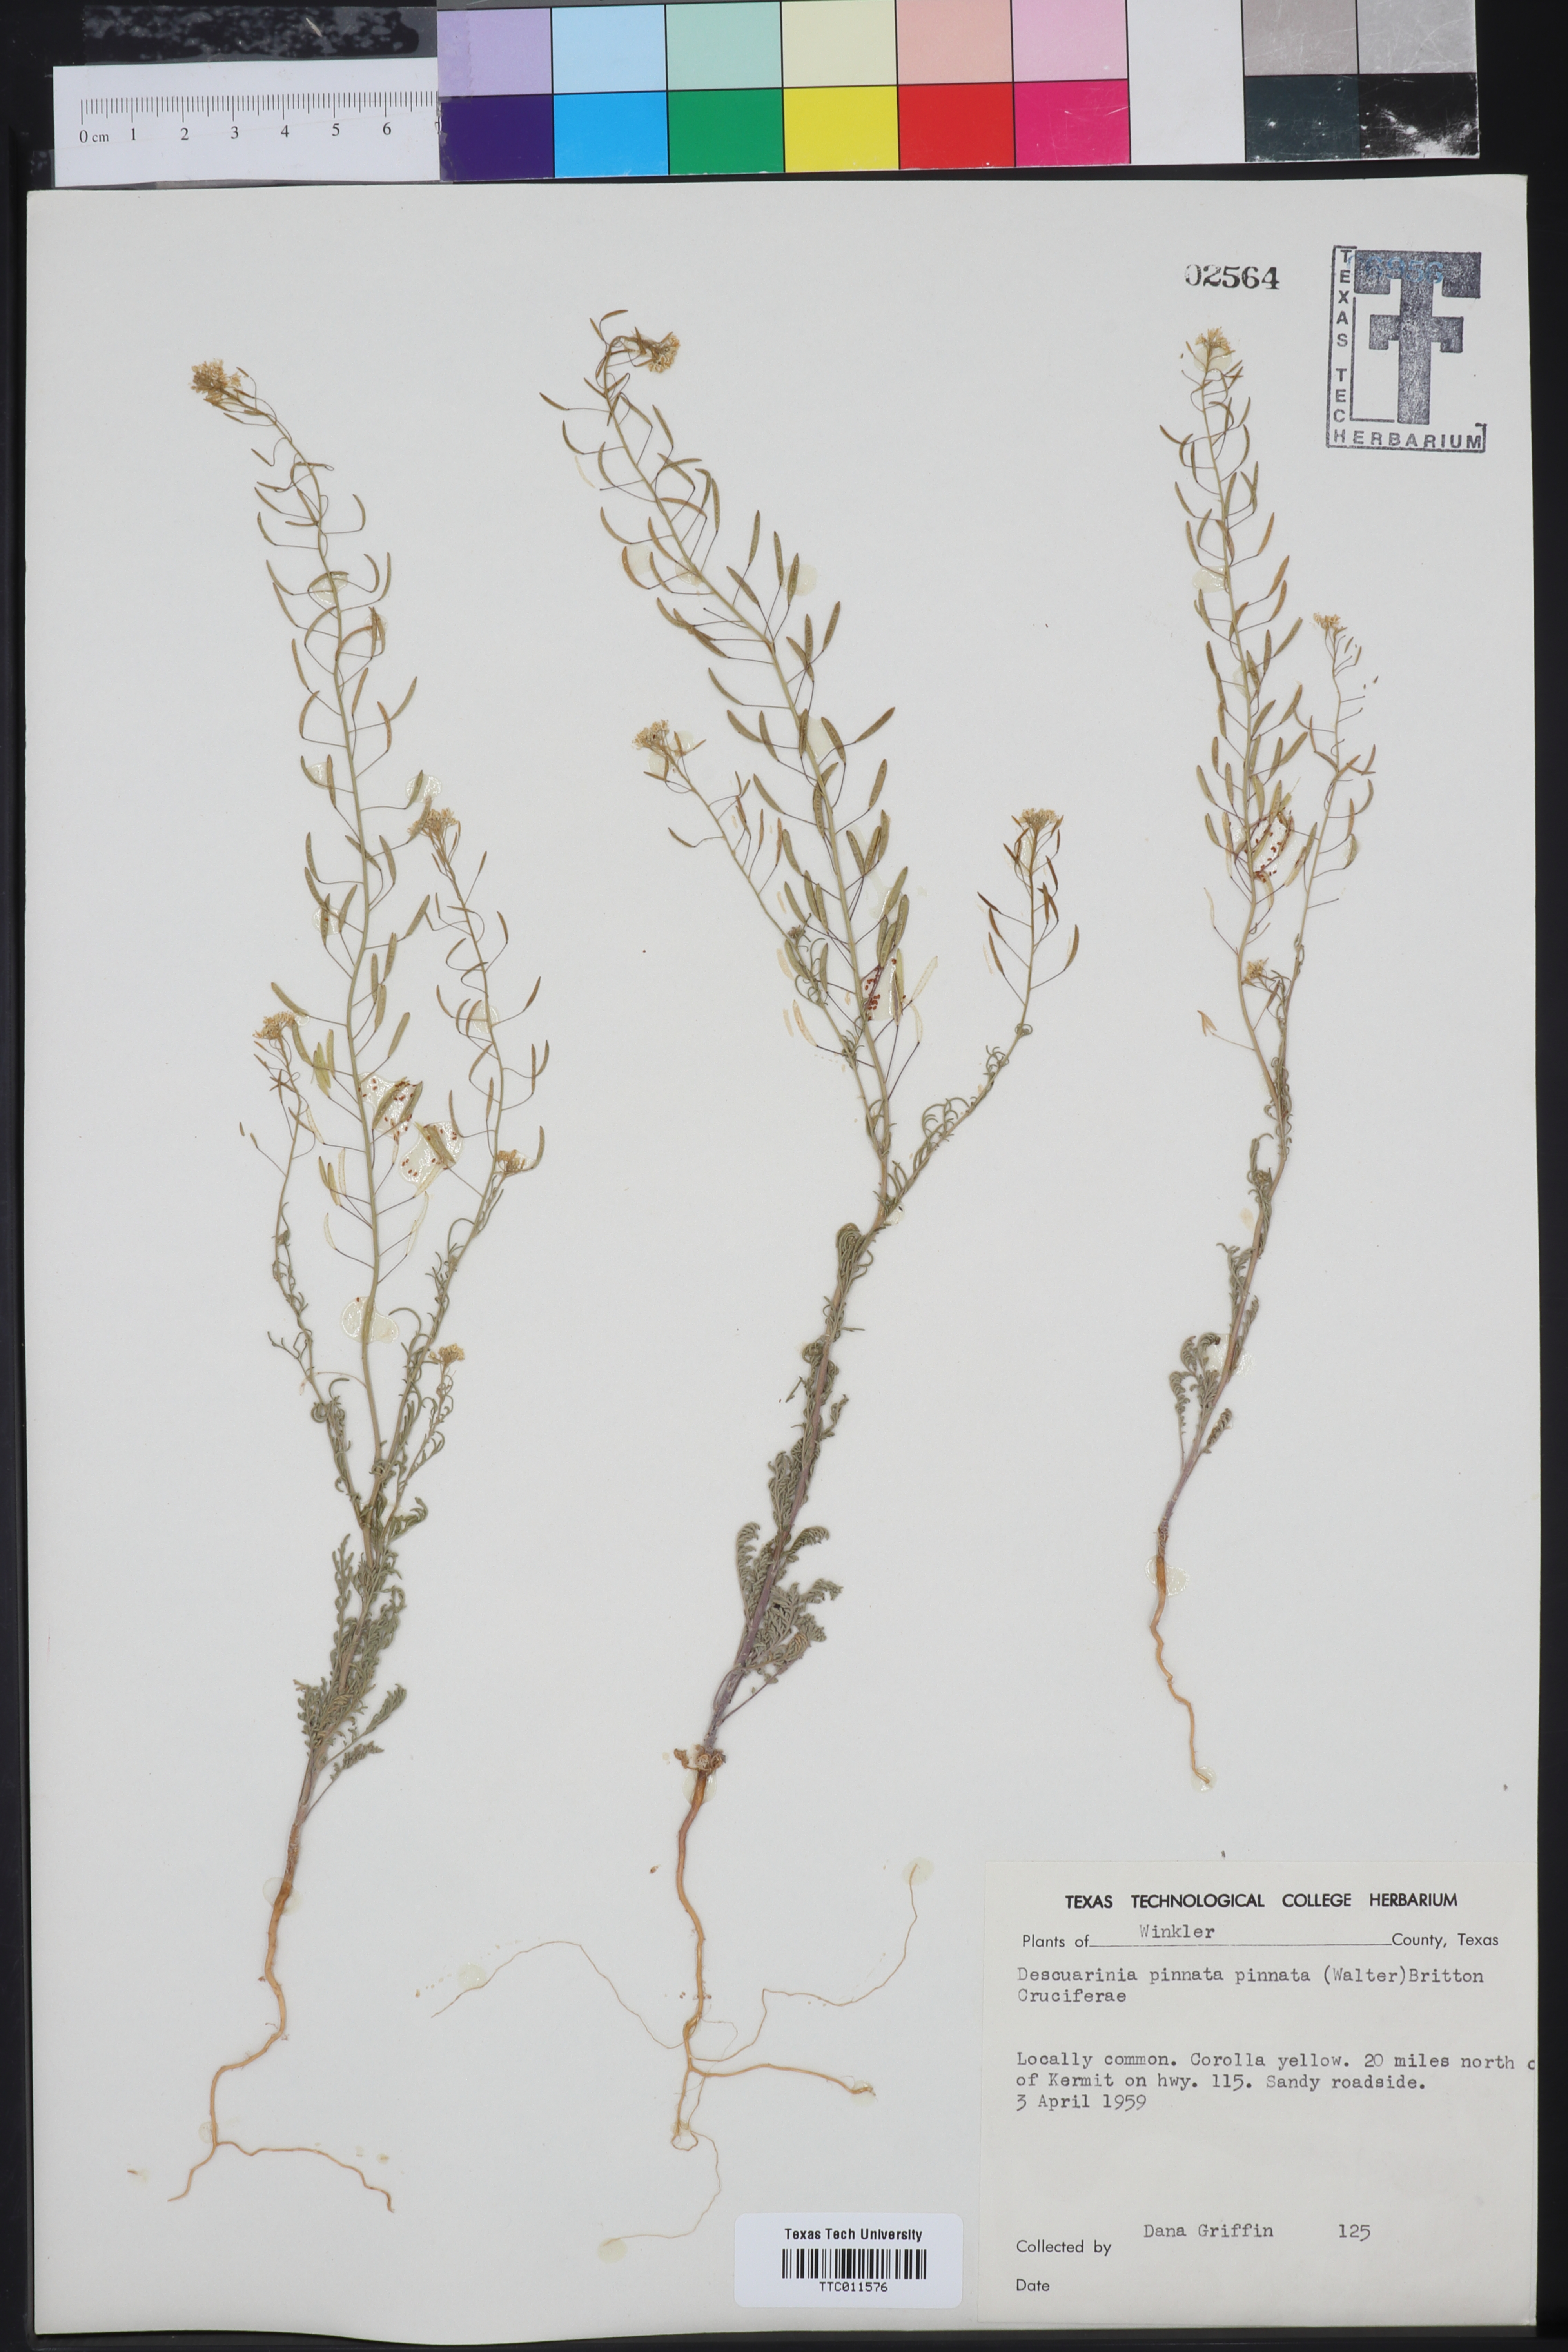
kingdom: Plantae
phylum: Tracheophyta
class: Magnoliopsida
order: Brassicales
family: Brassicaceae
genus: Descurainia
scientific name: Descurainia pinnata
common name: Western tansy mustard
